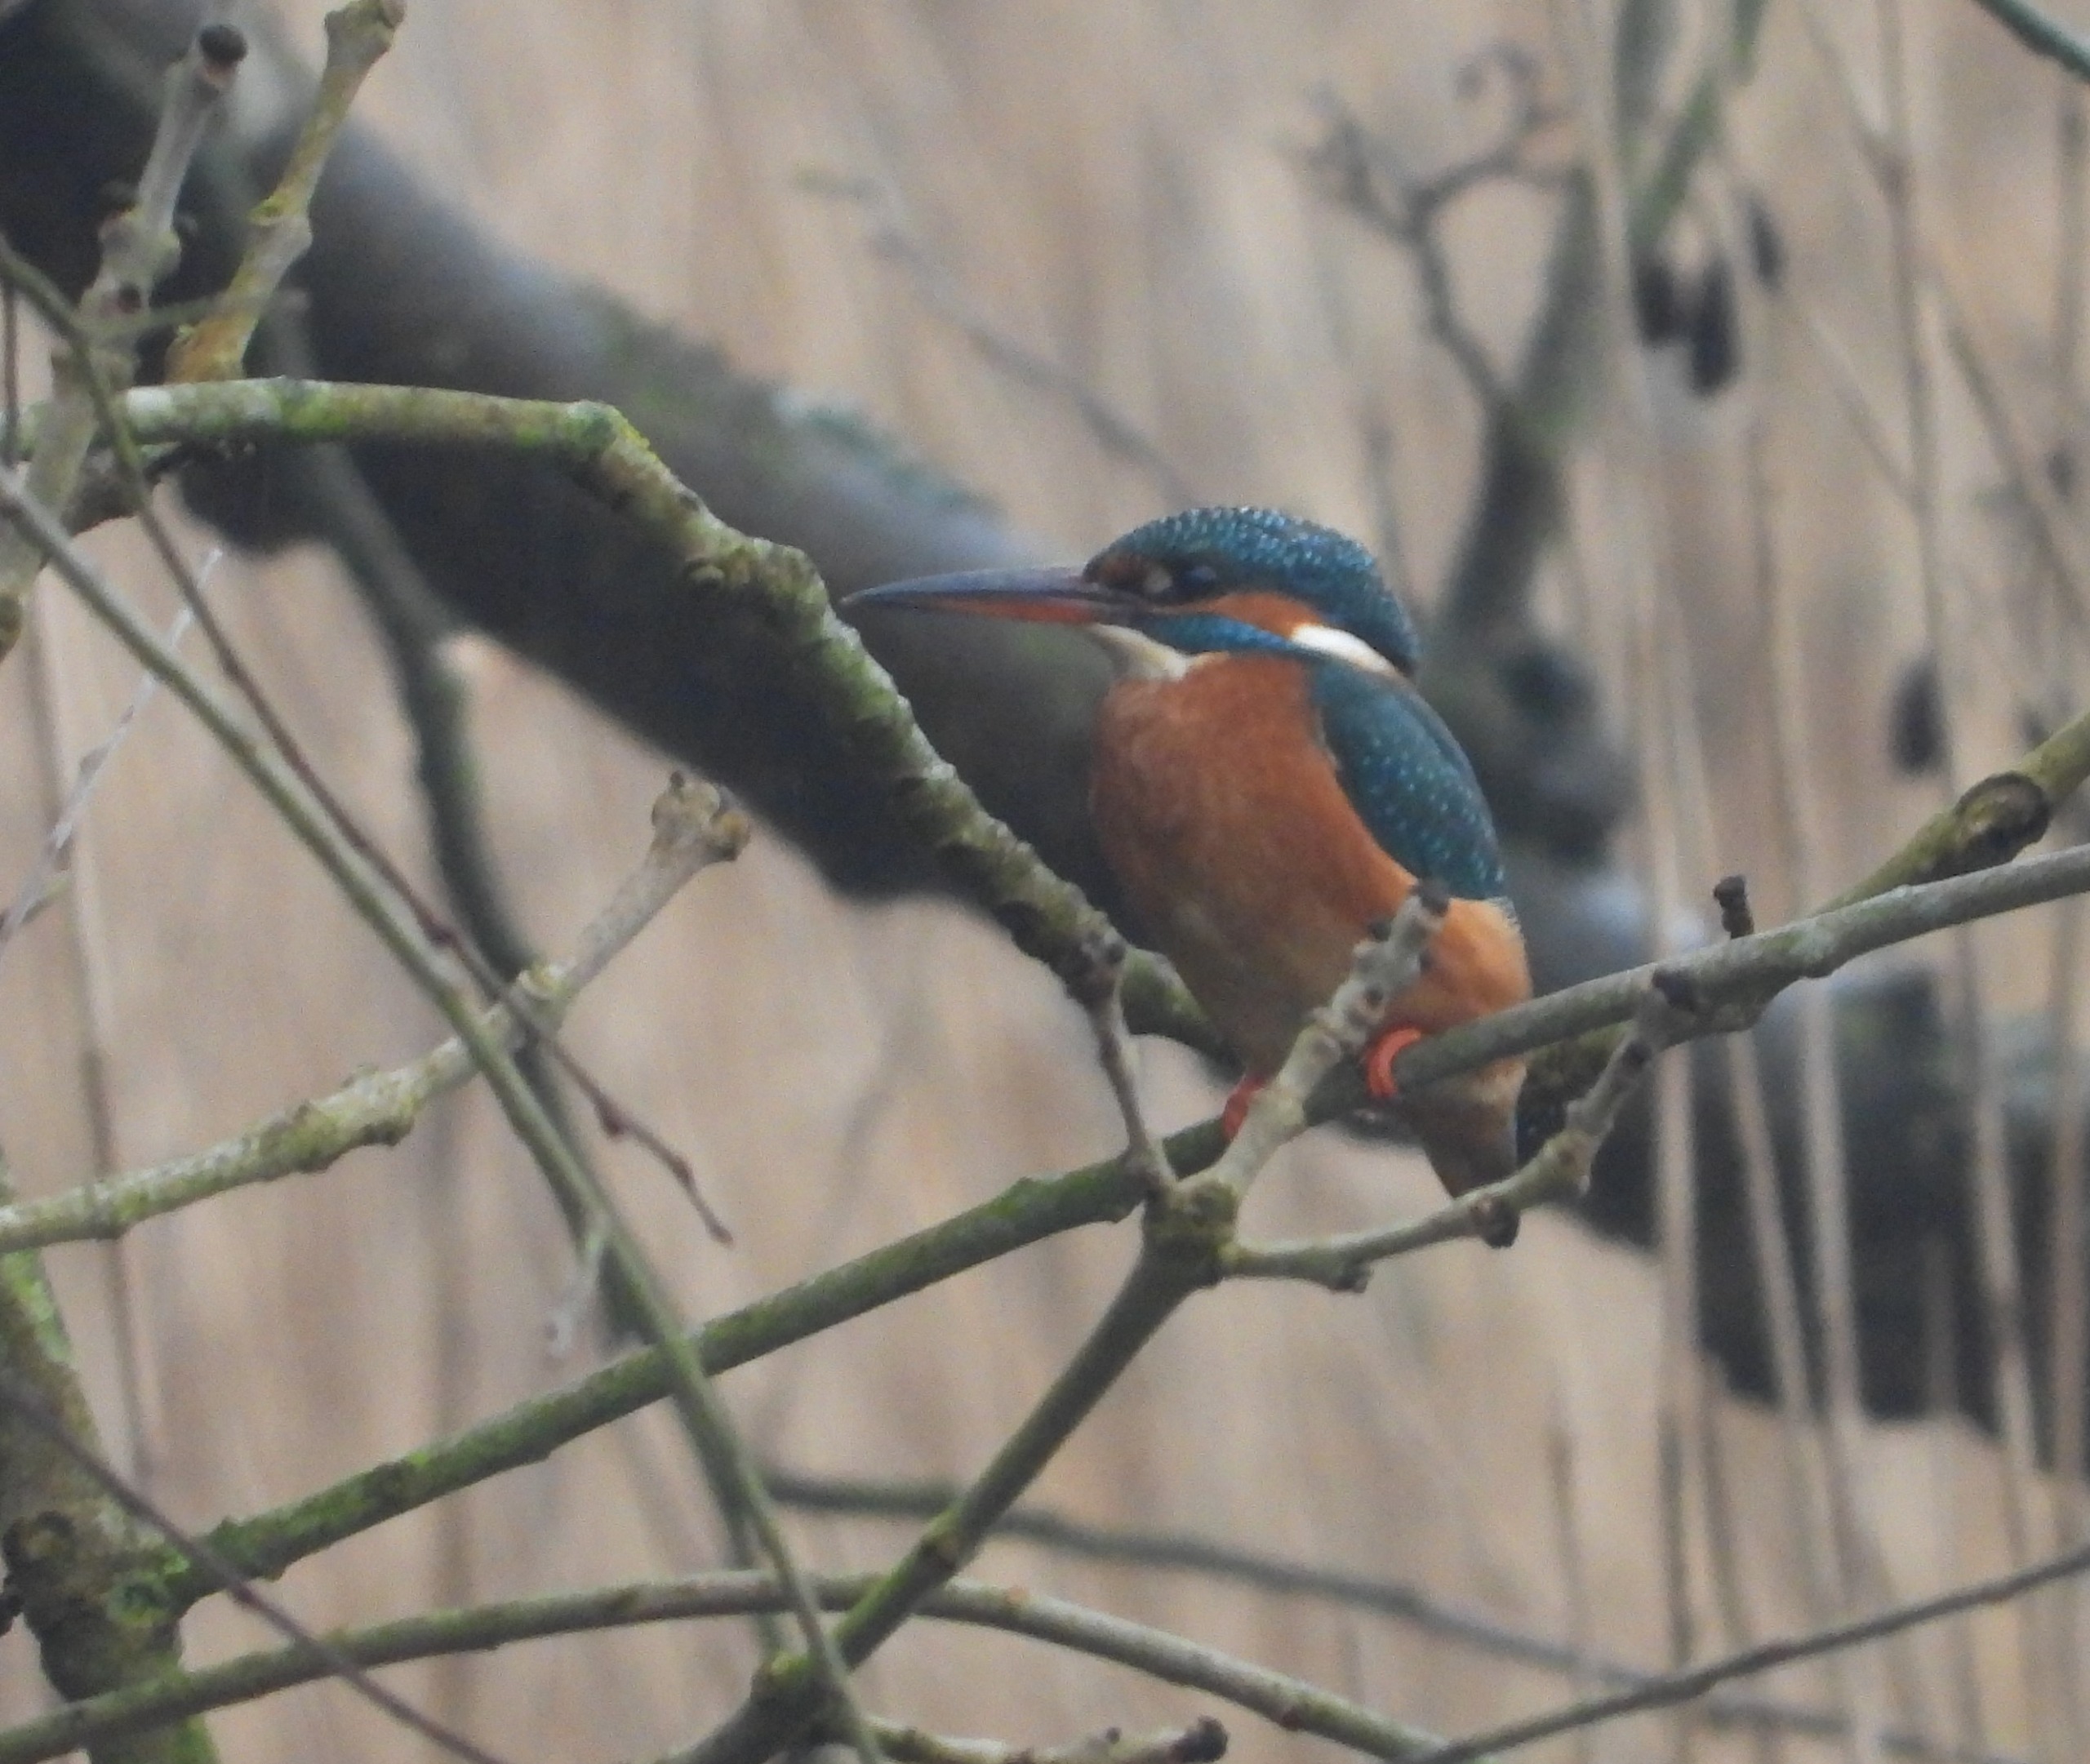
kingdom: Animalia
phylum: Chordata
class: Aves
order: Coraciiformes
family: Alcedinidae
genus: Alcedo
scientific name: Alcedo atthis
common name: Isfugl
